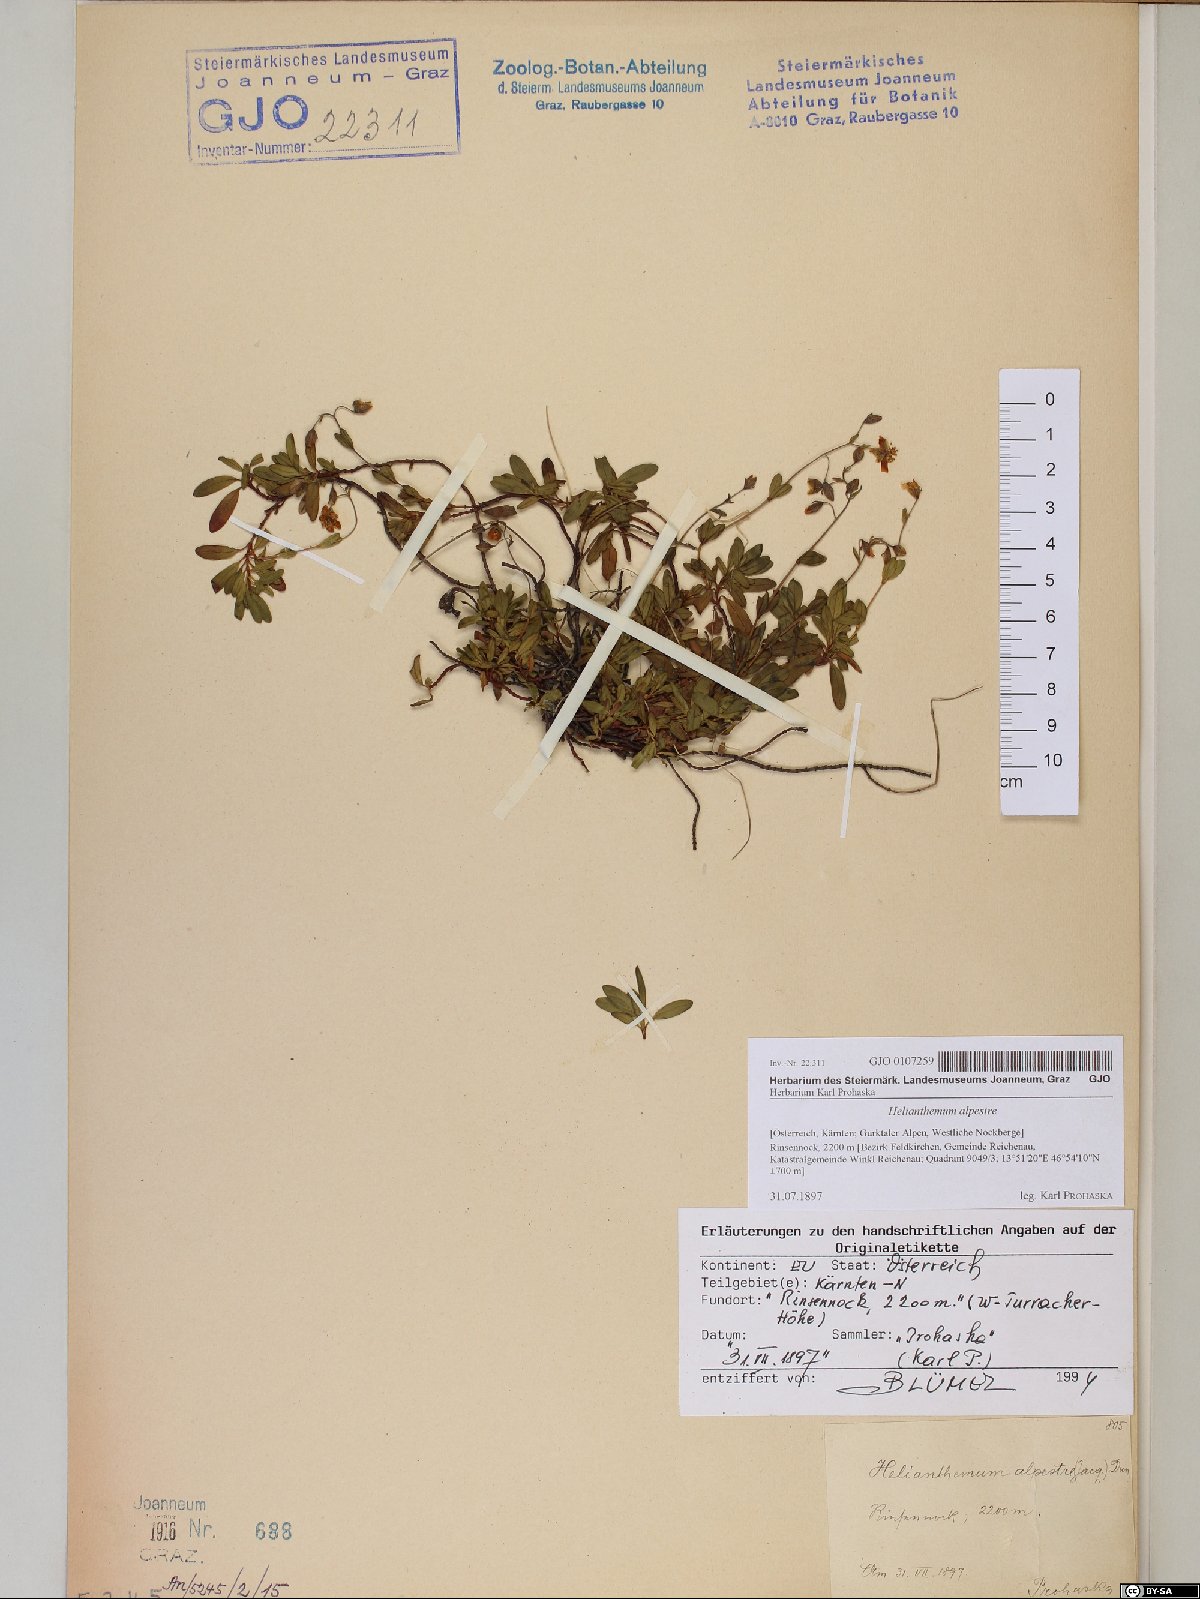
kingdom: Plantae
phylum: Tracheophyta
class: Magnoliopsida
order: Malvales
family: Cistaceae
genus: Helianthemum
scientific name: Helianthemum alpestre
